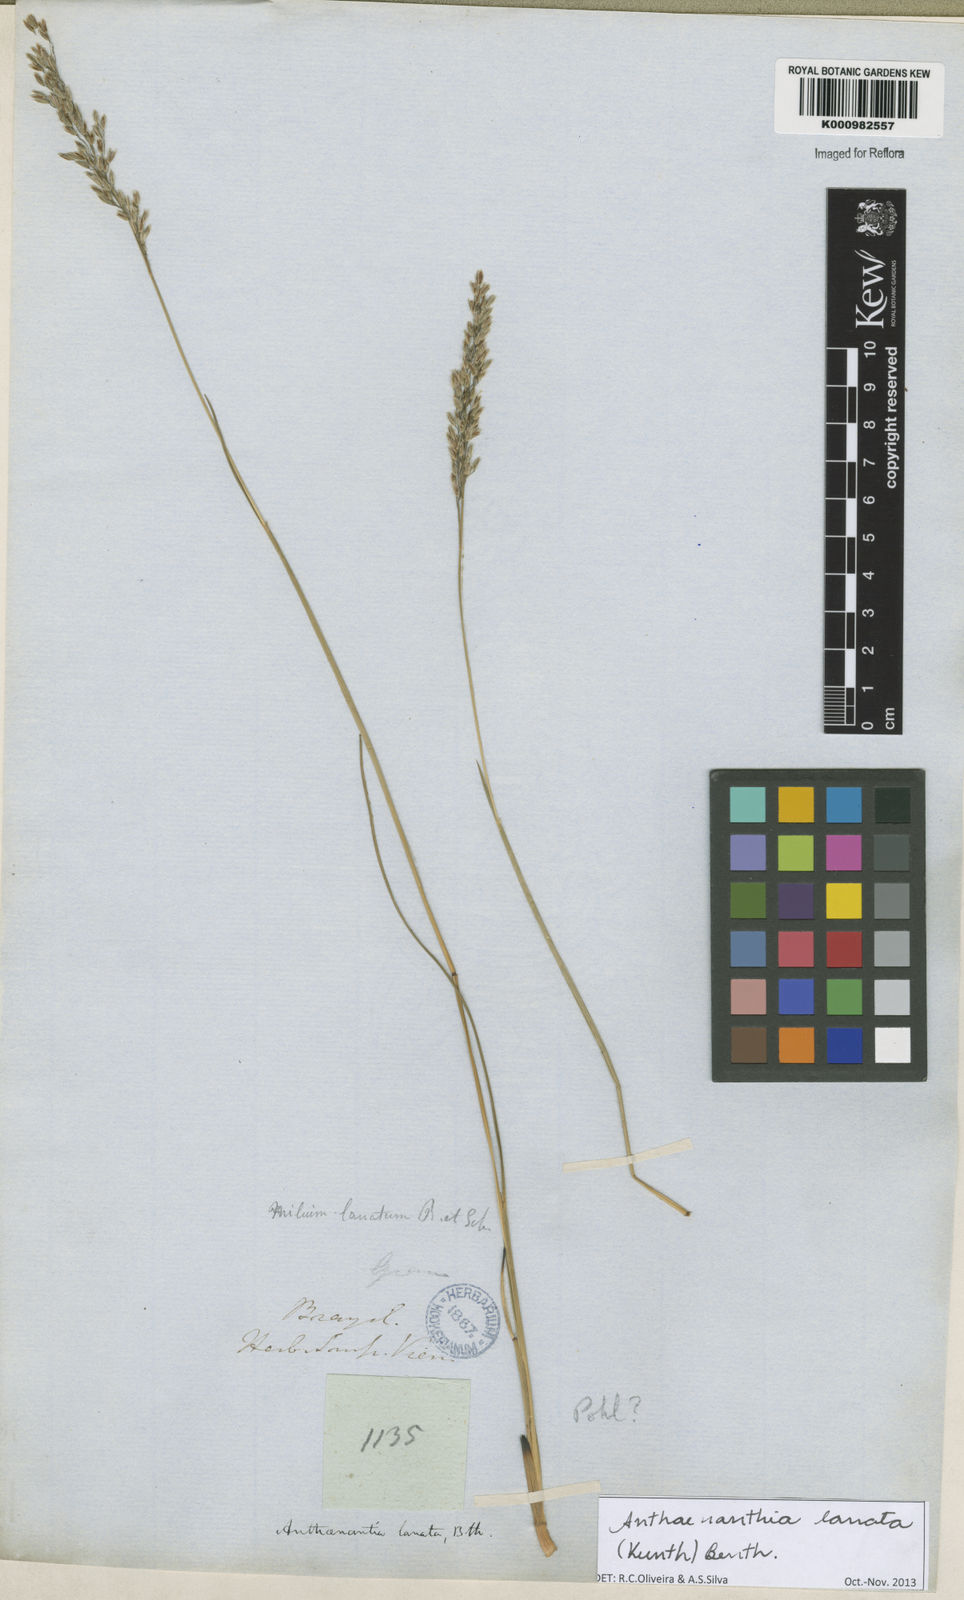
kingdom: Plantae
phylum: Tracheophyta
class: Liliopsida
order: Poales
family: Poaceae
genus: Anthenantia
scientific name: Anthenantia lanata
